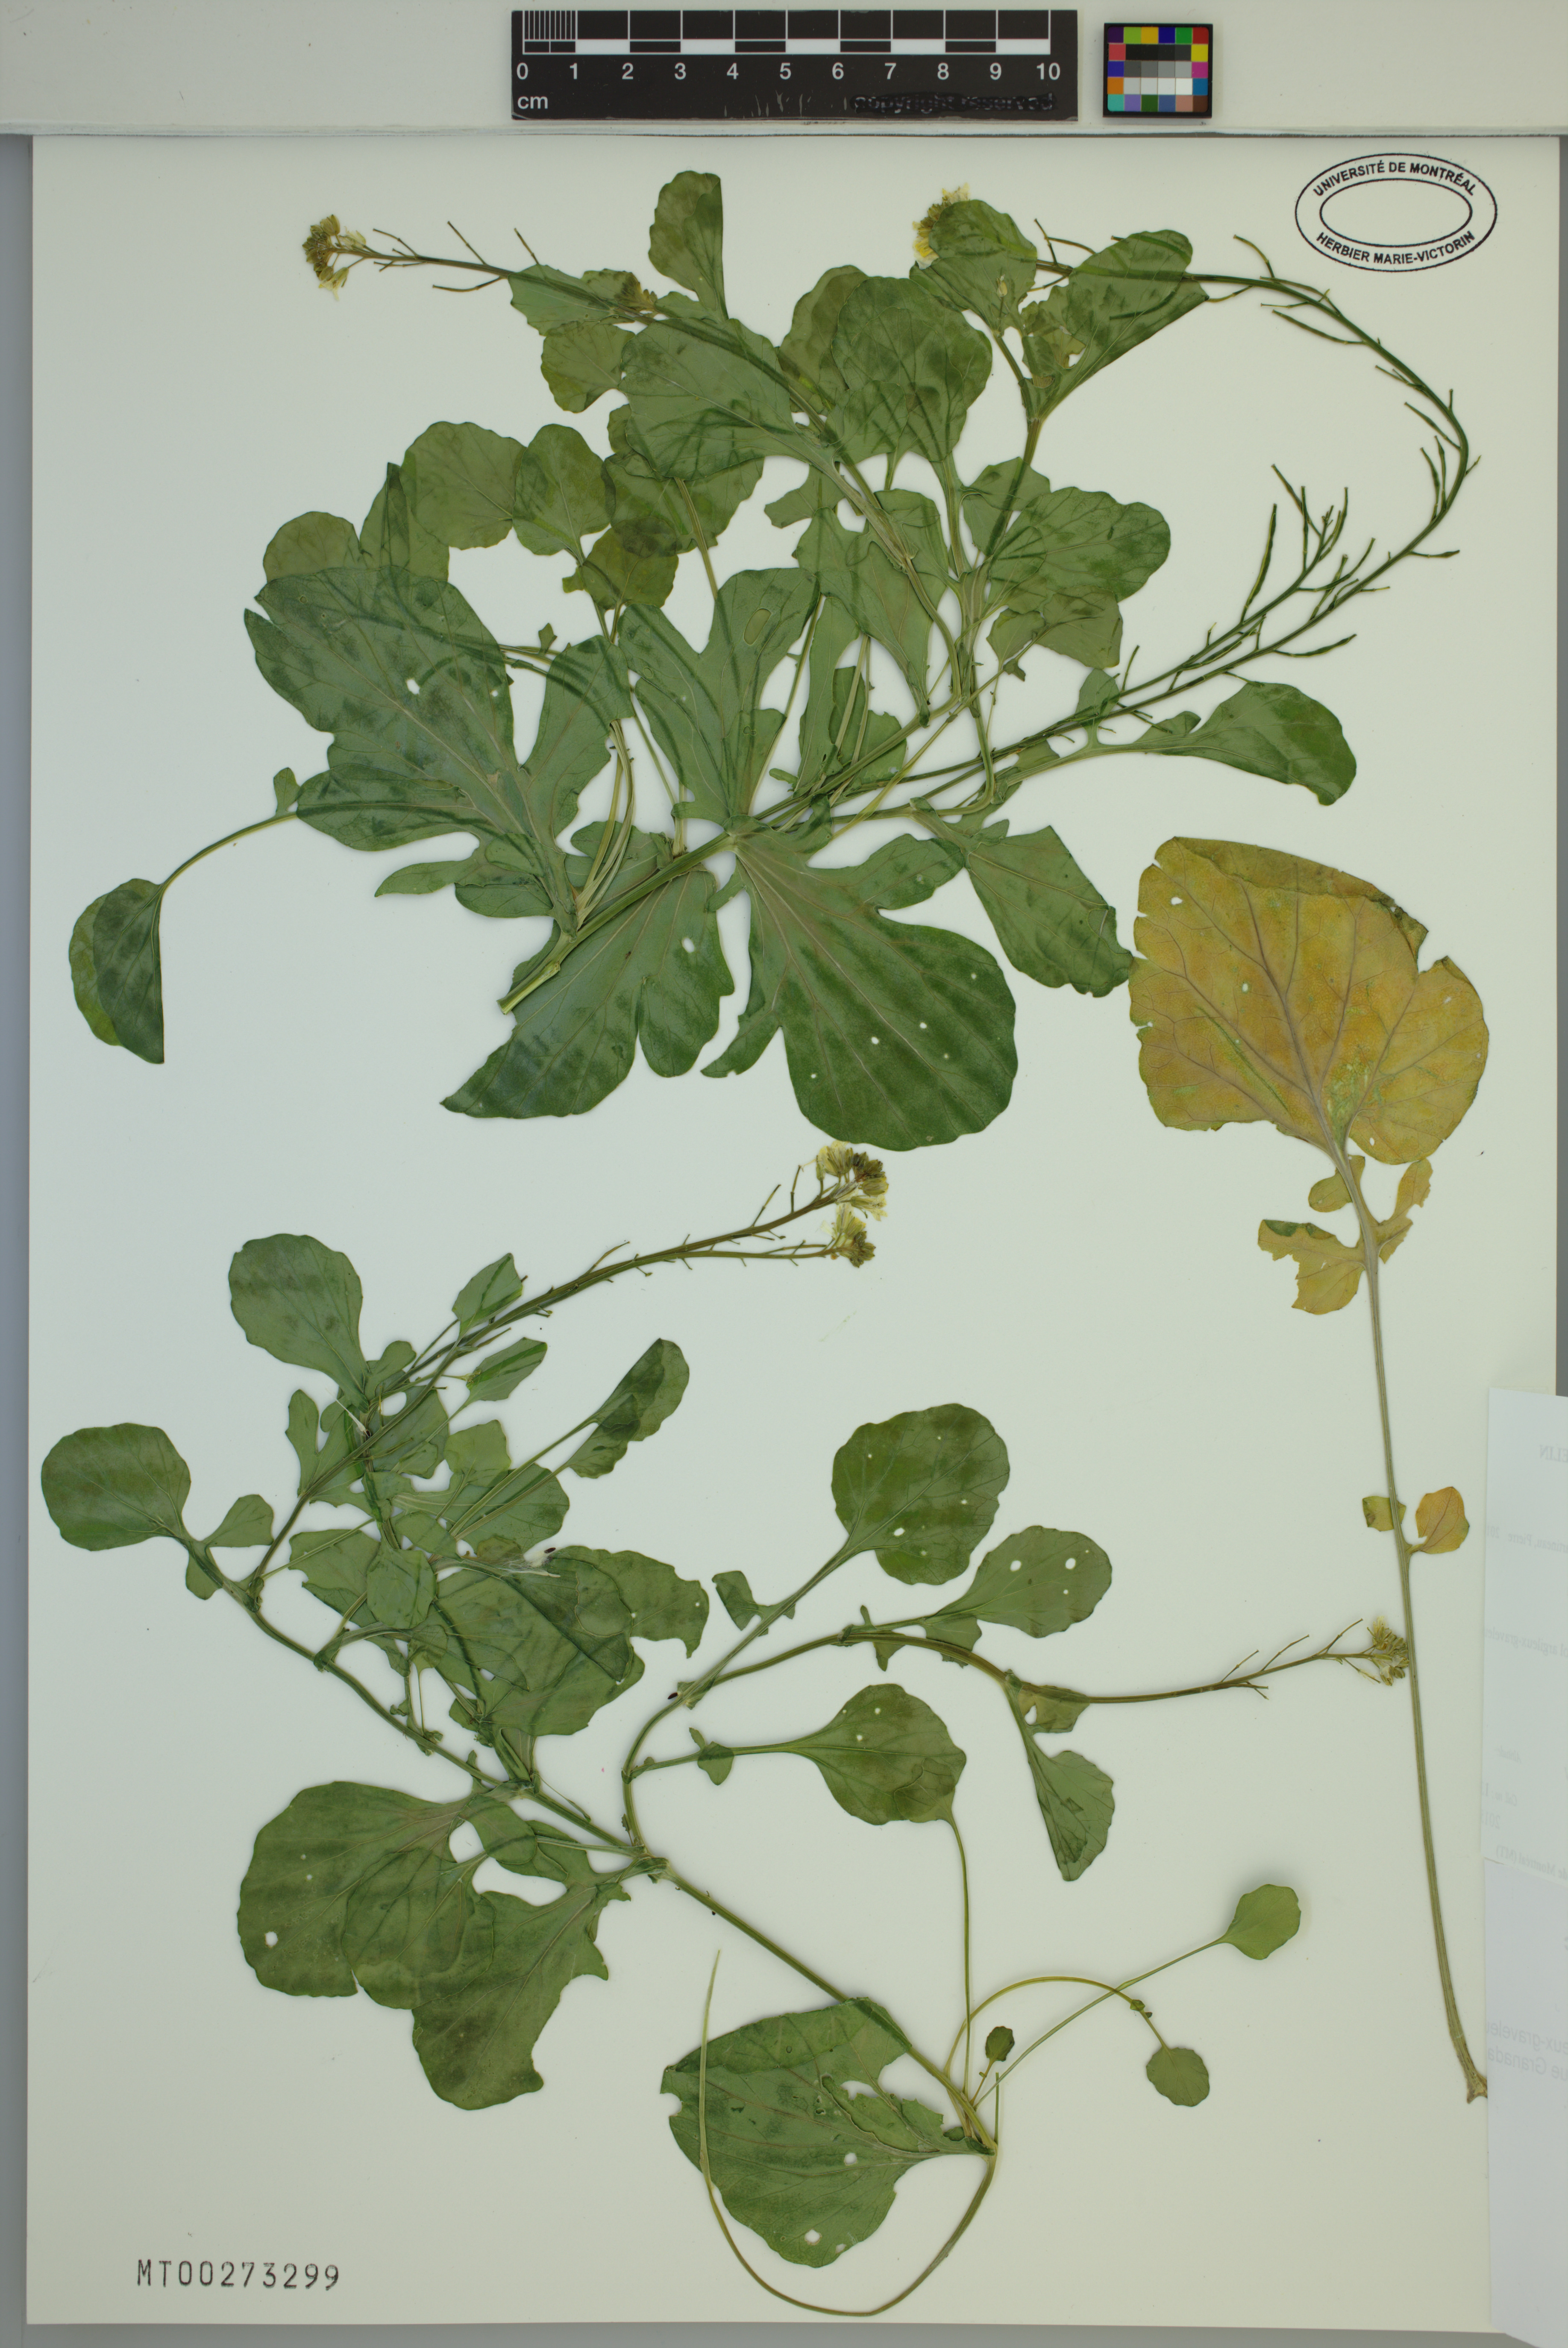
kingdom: Plantae
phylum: Tracheophyta
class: Magnoliopsida
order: Brassicales
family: Brassicaceae
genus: Brassica
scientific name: Brassica nigra
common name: Black mustard
